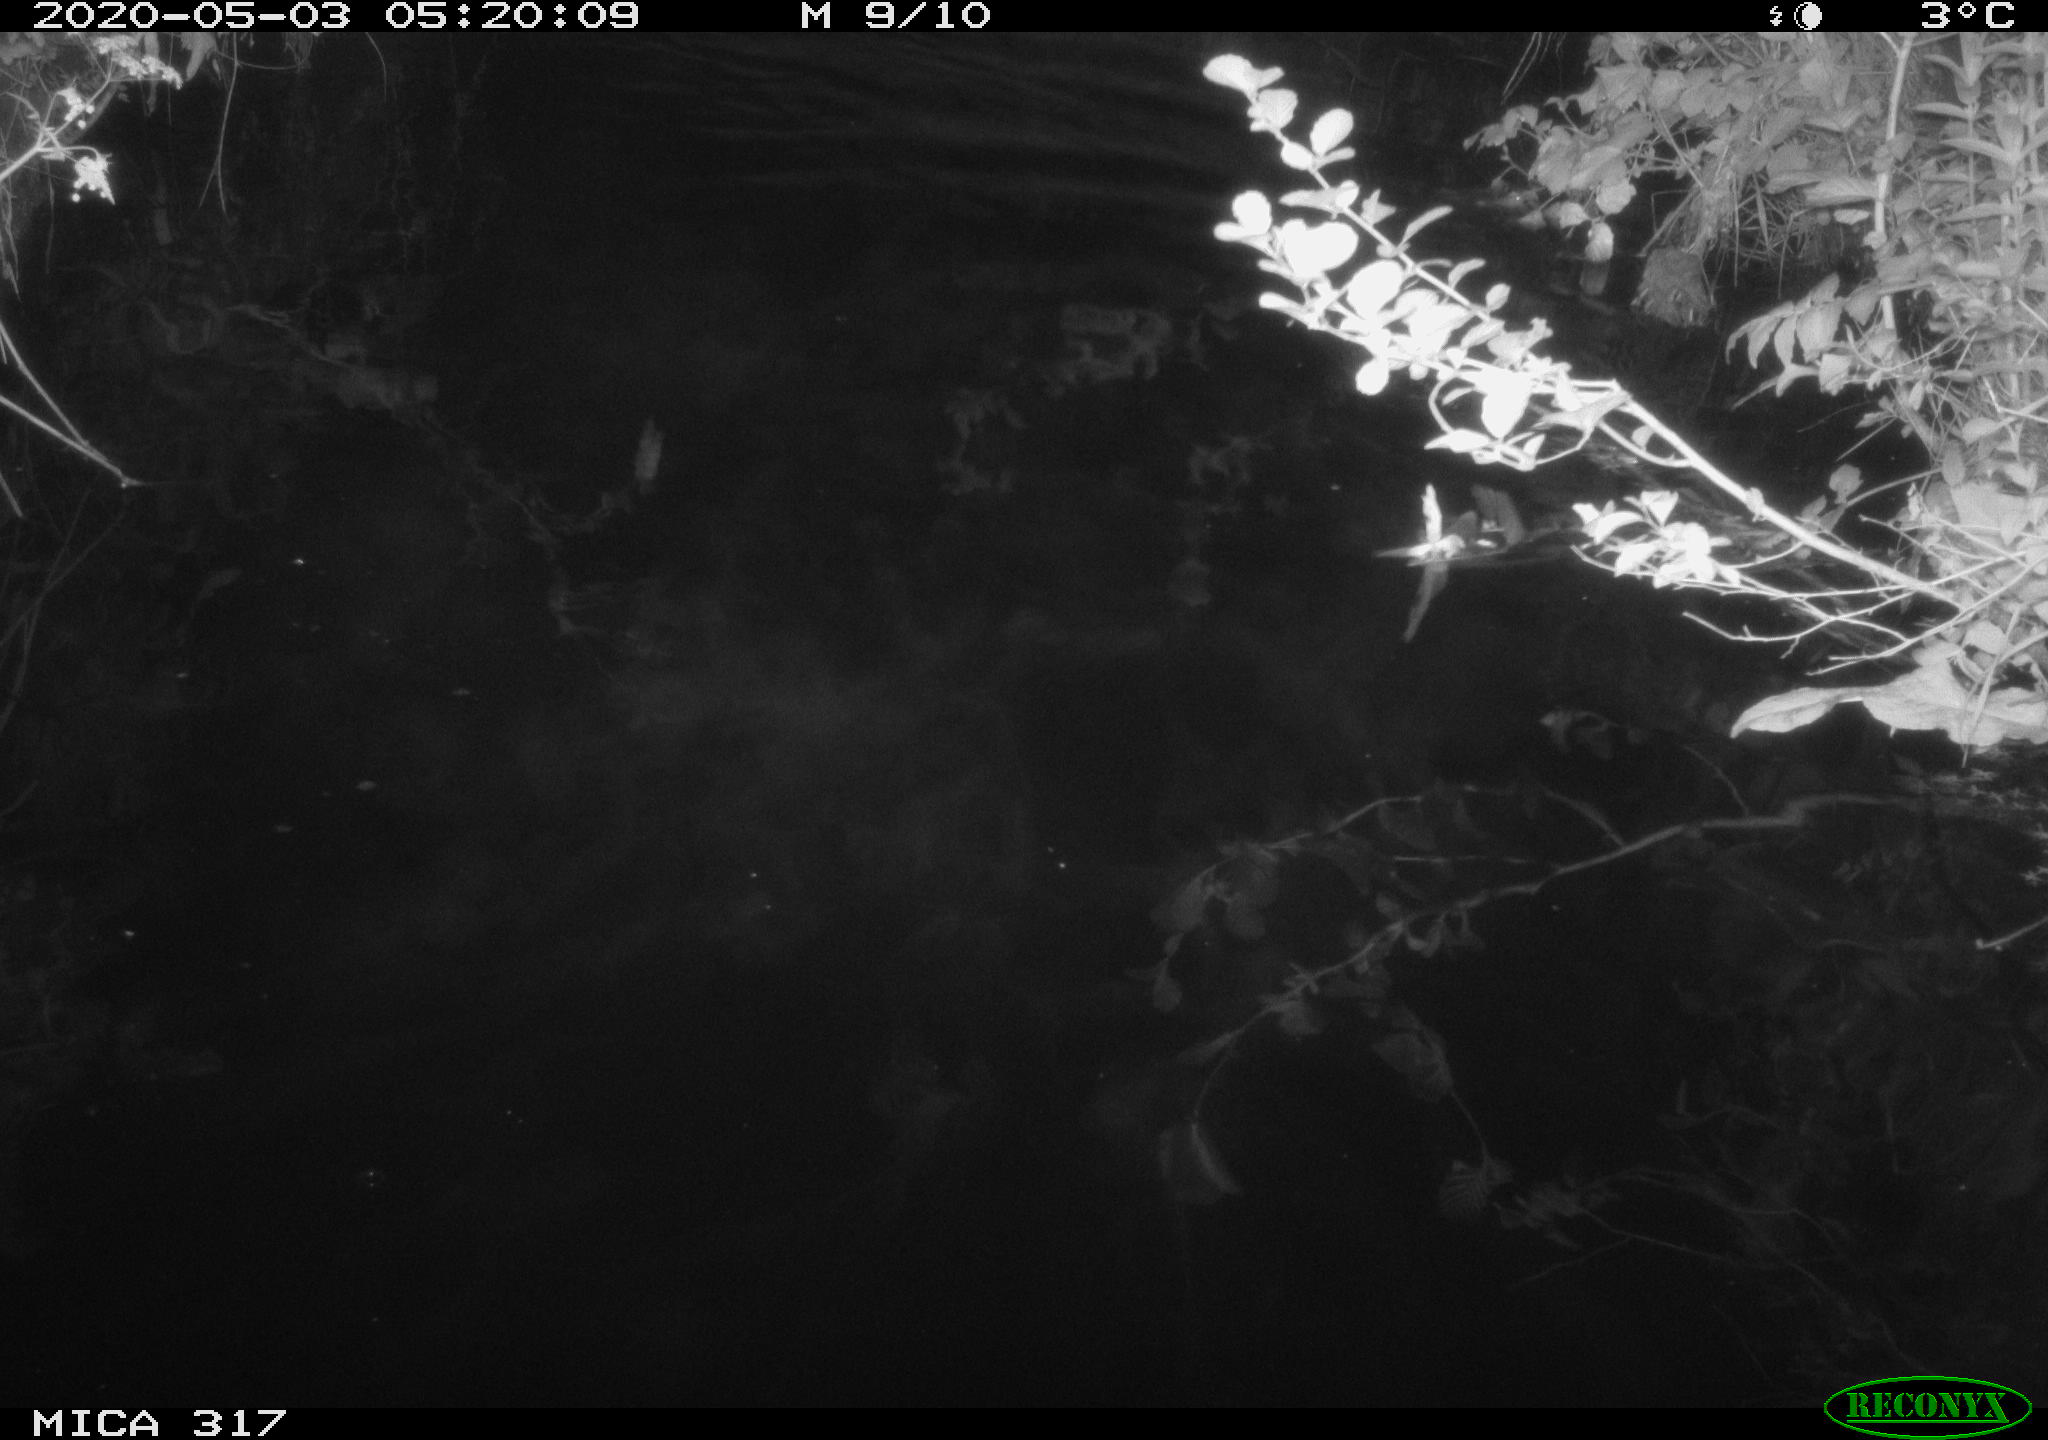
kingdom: Animalia
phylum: Chordata
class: Aves
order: Anseriformes
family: Anatidae
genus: Anas
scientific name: Anas platyrhynchos
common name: Mallard
